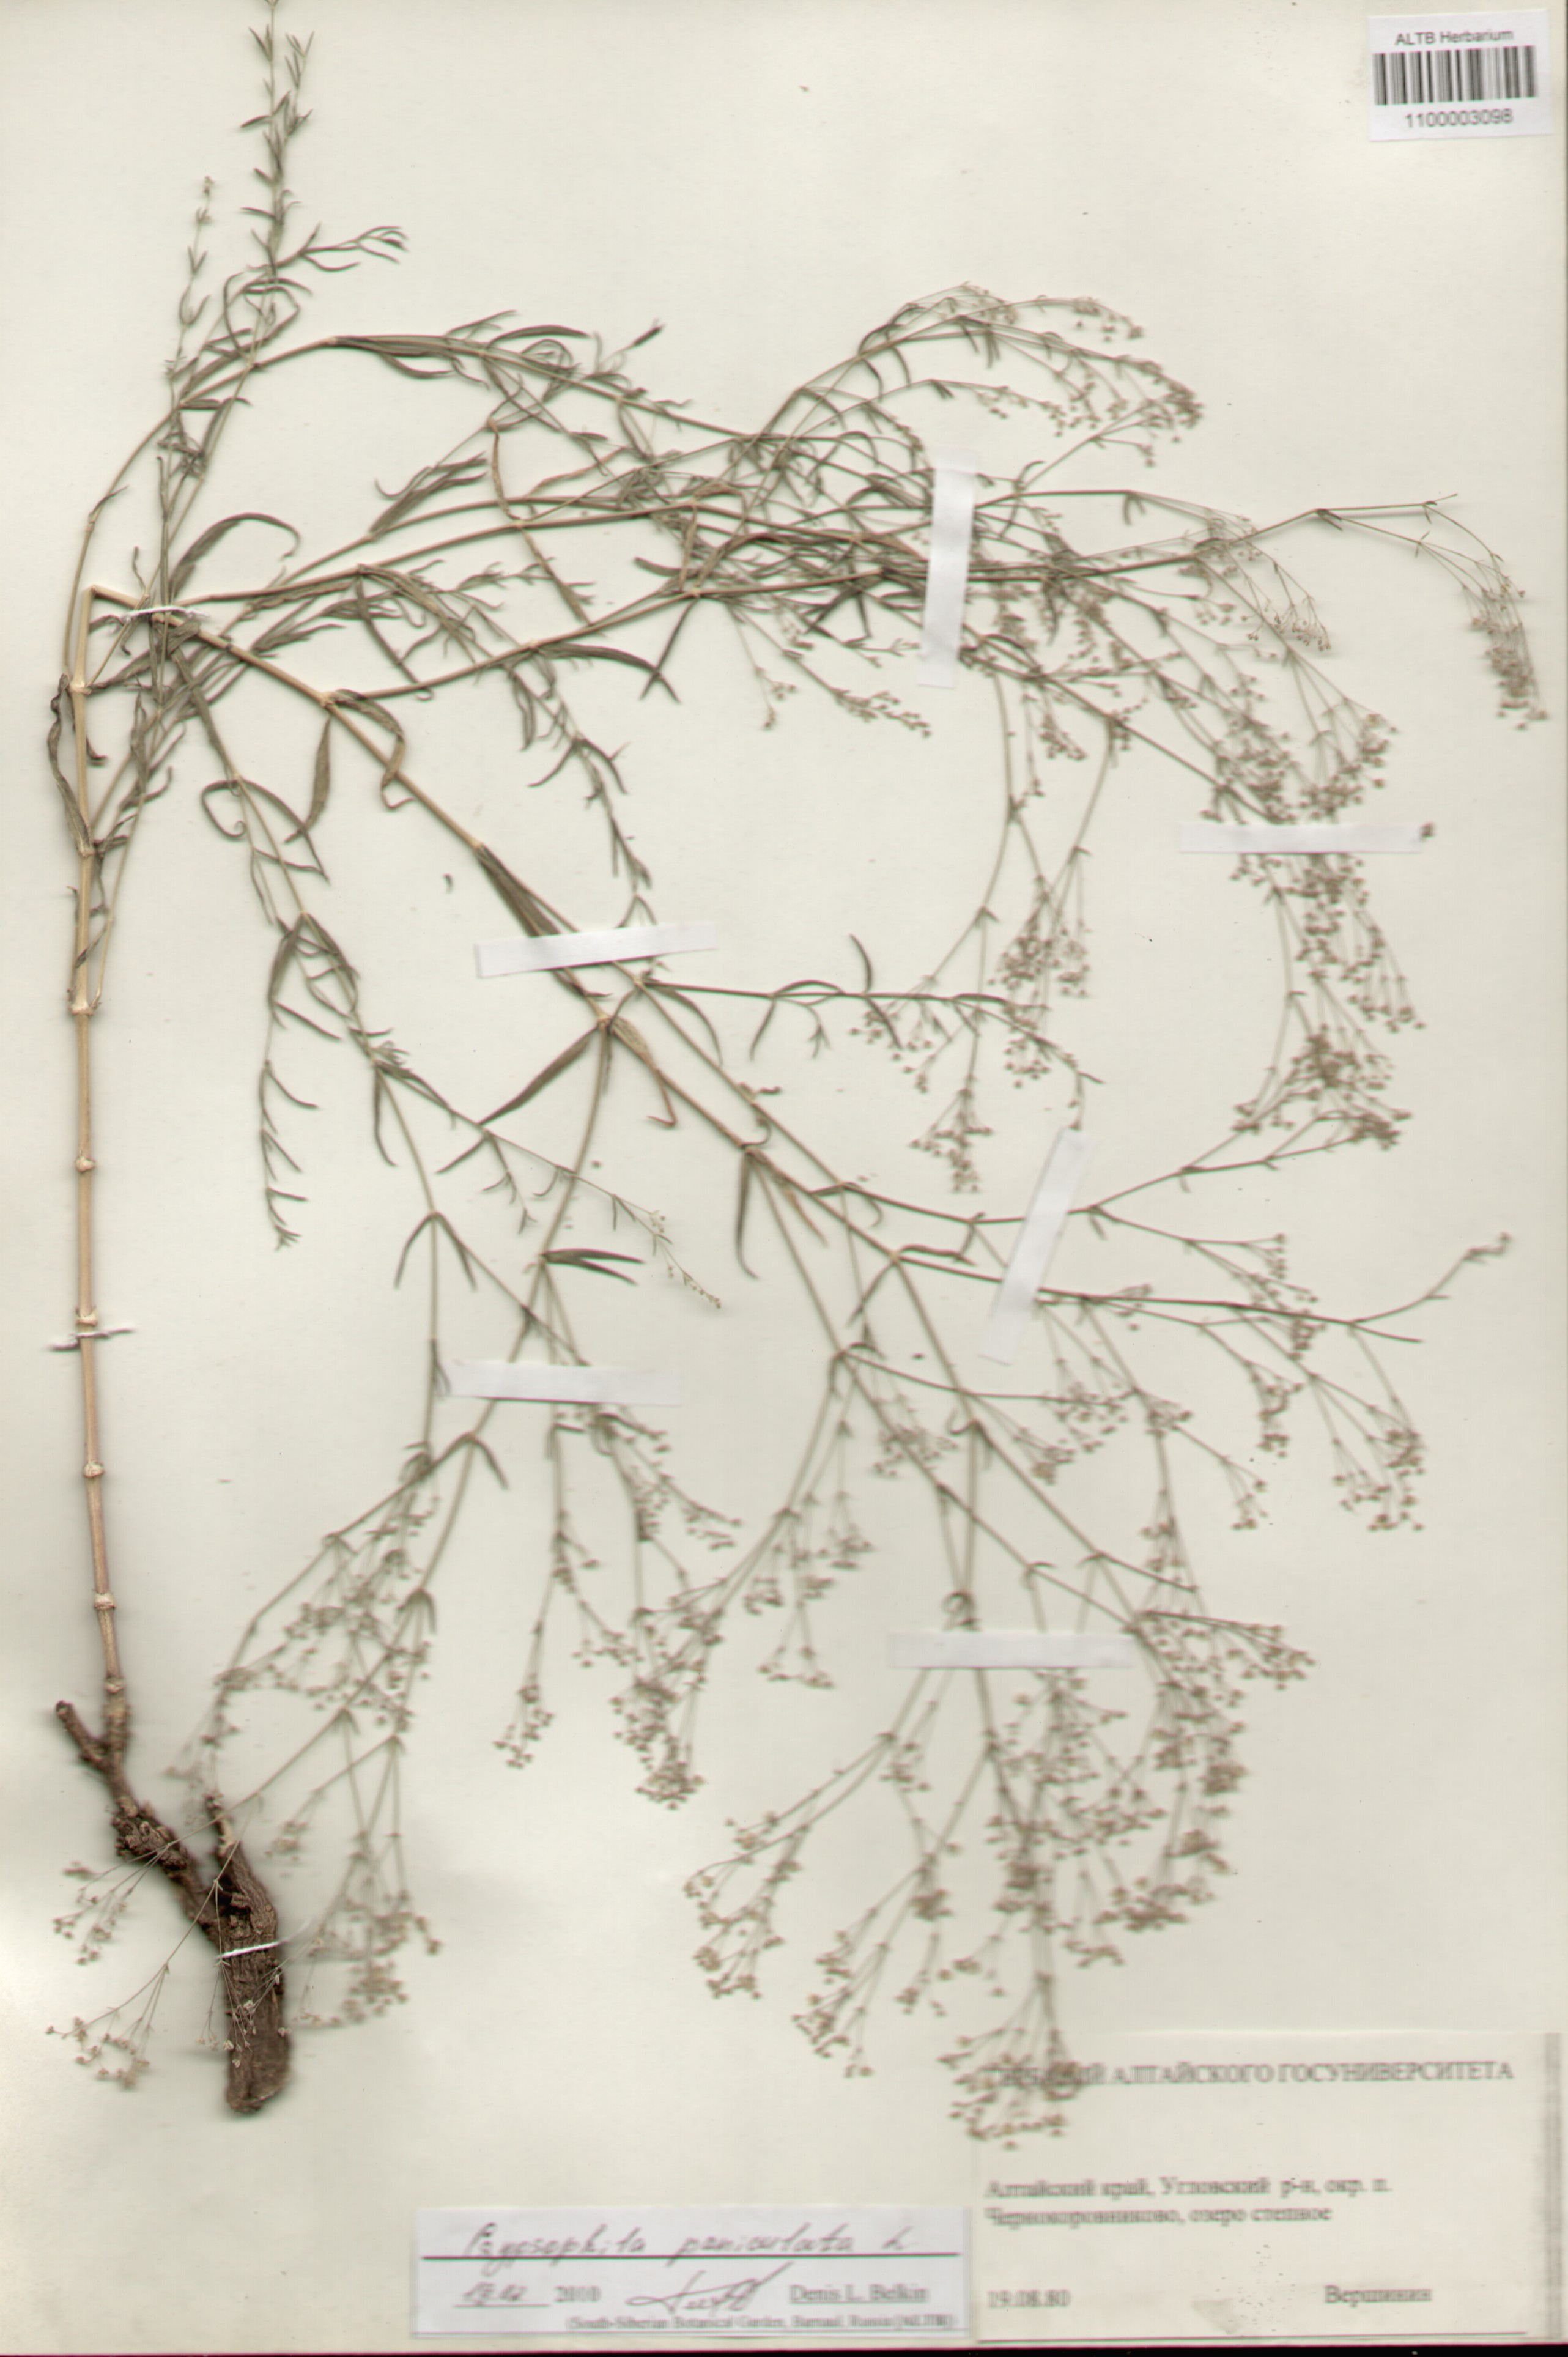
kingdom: Plantae
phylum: Tracheophyta
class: Magnoliopsida
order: Caryophyllales
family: Caryophyllaceae
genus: Gypsophila
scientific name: Gypsophila paniculata
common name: Baby's-breath
